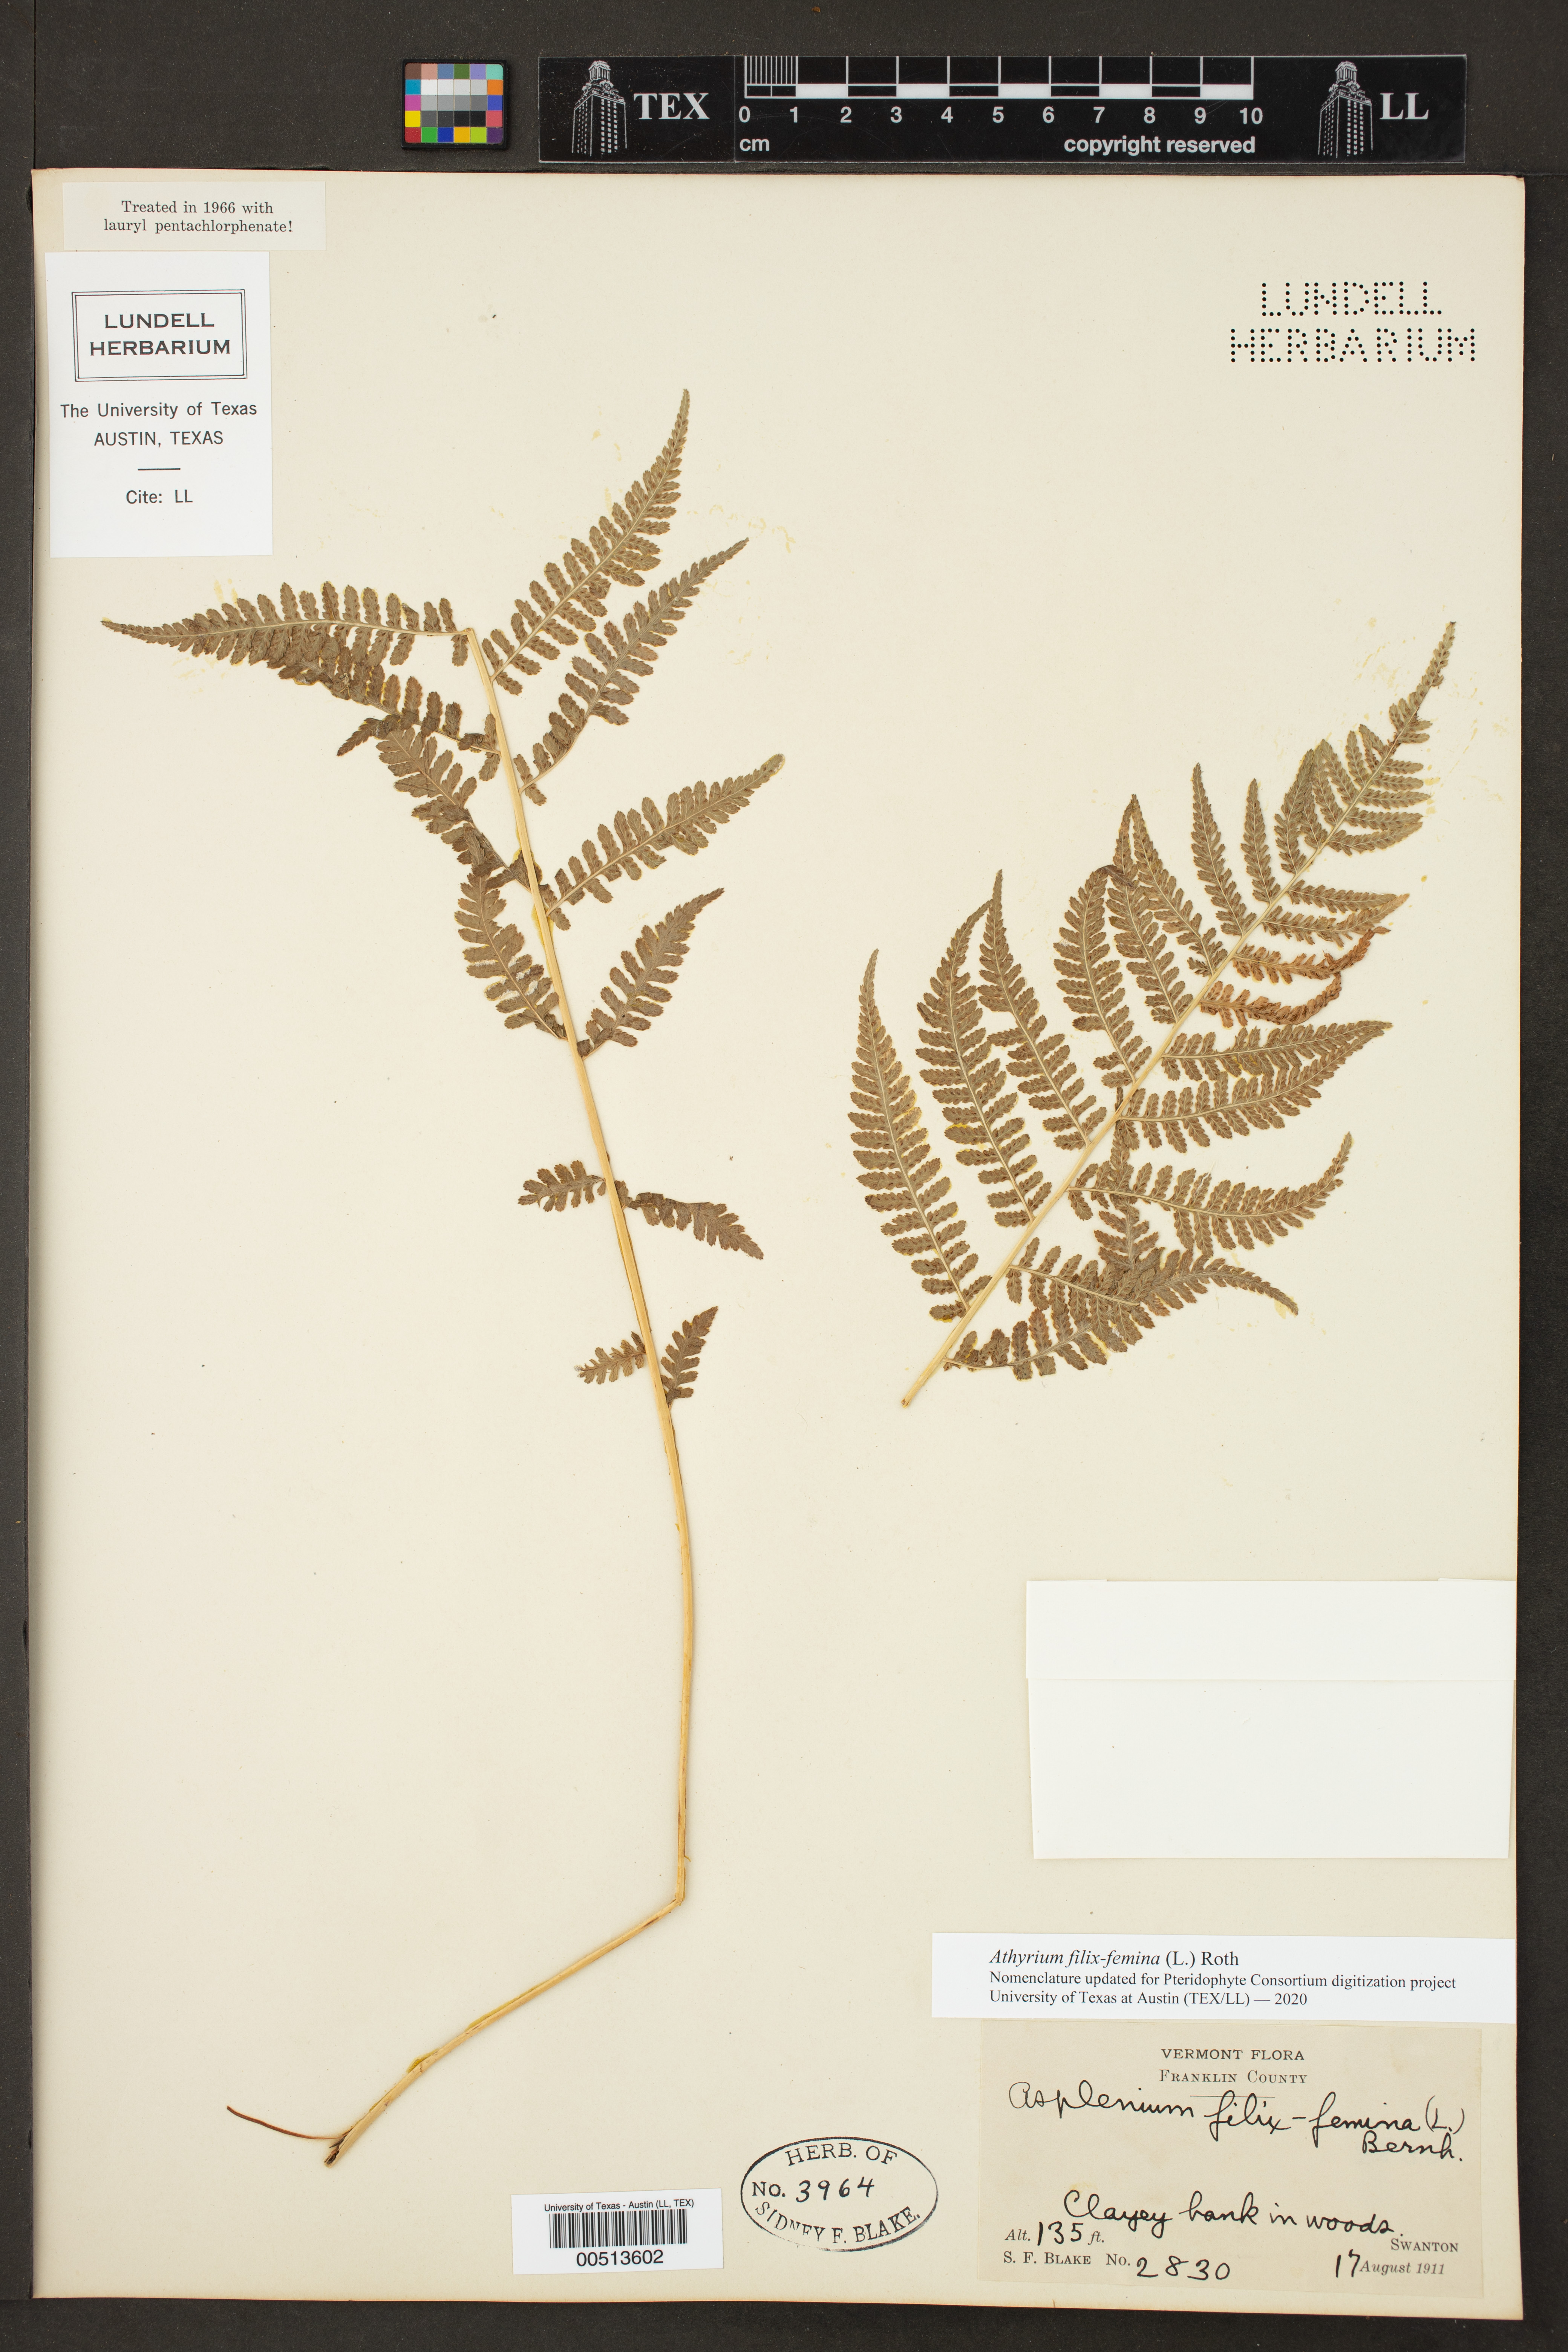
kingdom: Plantae
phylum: Tracheophyta
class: Polypodiopsida
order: Polypodiales
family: Athyriaceae
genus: Athyrium
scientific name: Athyrium filix-femina
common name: Lady fern
